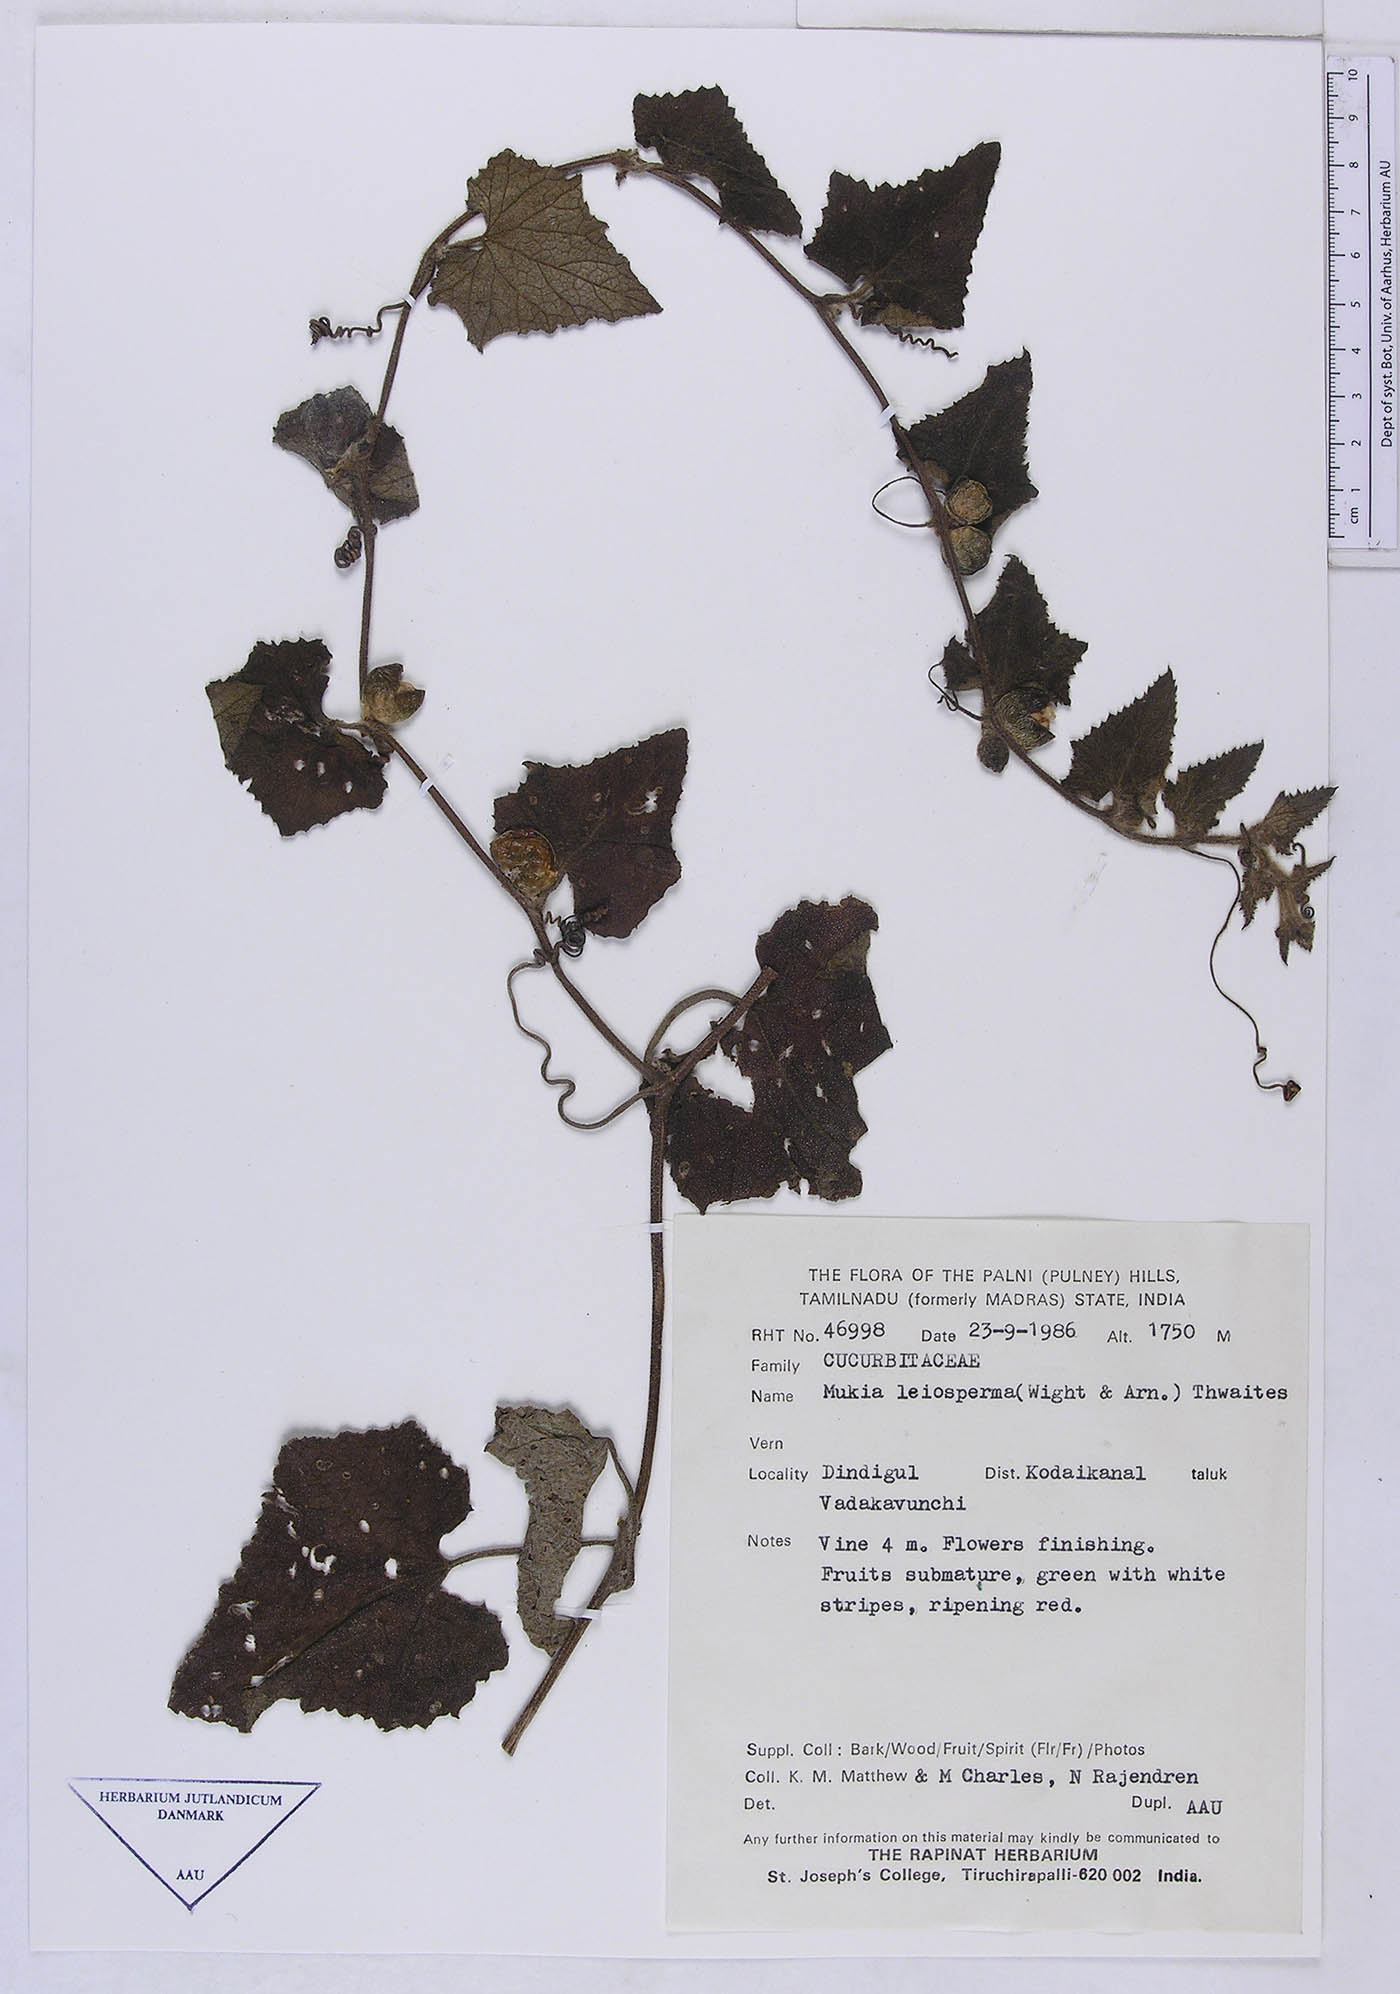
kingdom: Plantae
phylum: Tracheophyta
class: Magnoliopsida
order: Cucurbitales
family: Cucurbitaceae
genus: Cucumis
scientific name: Cucumis leiospermus
